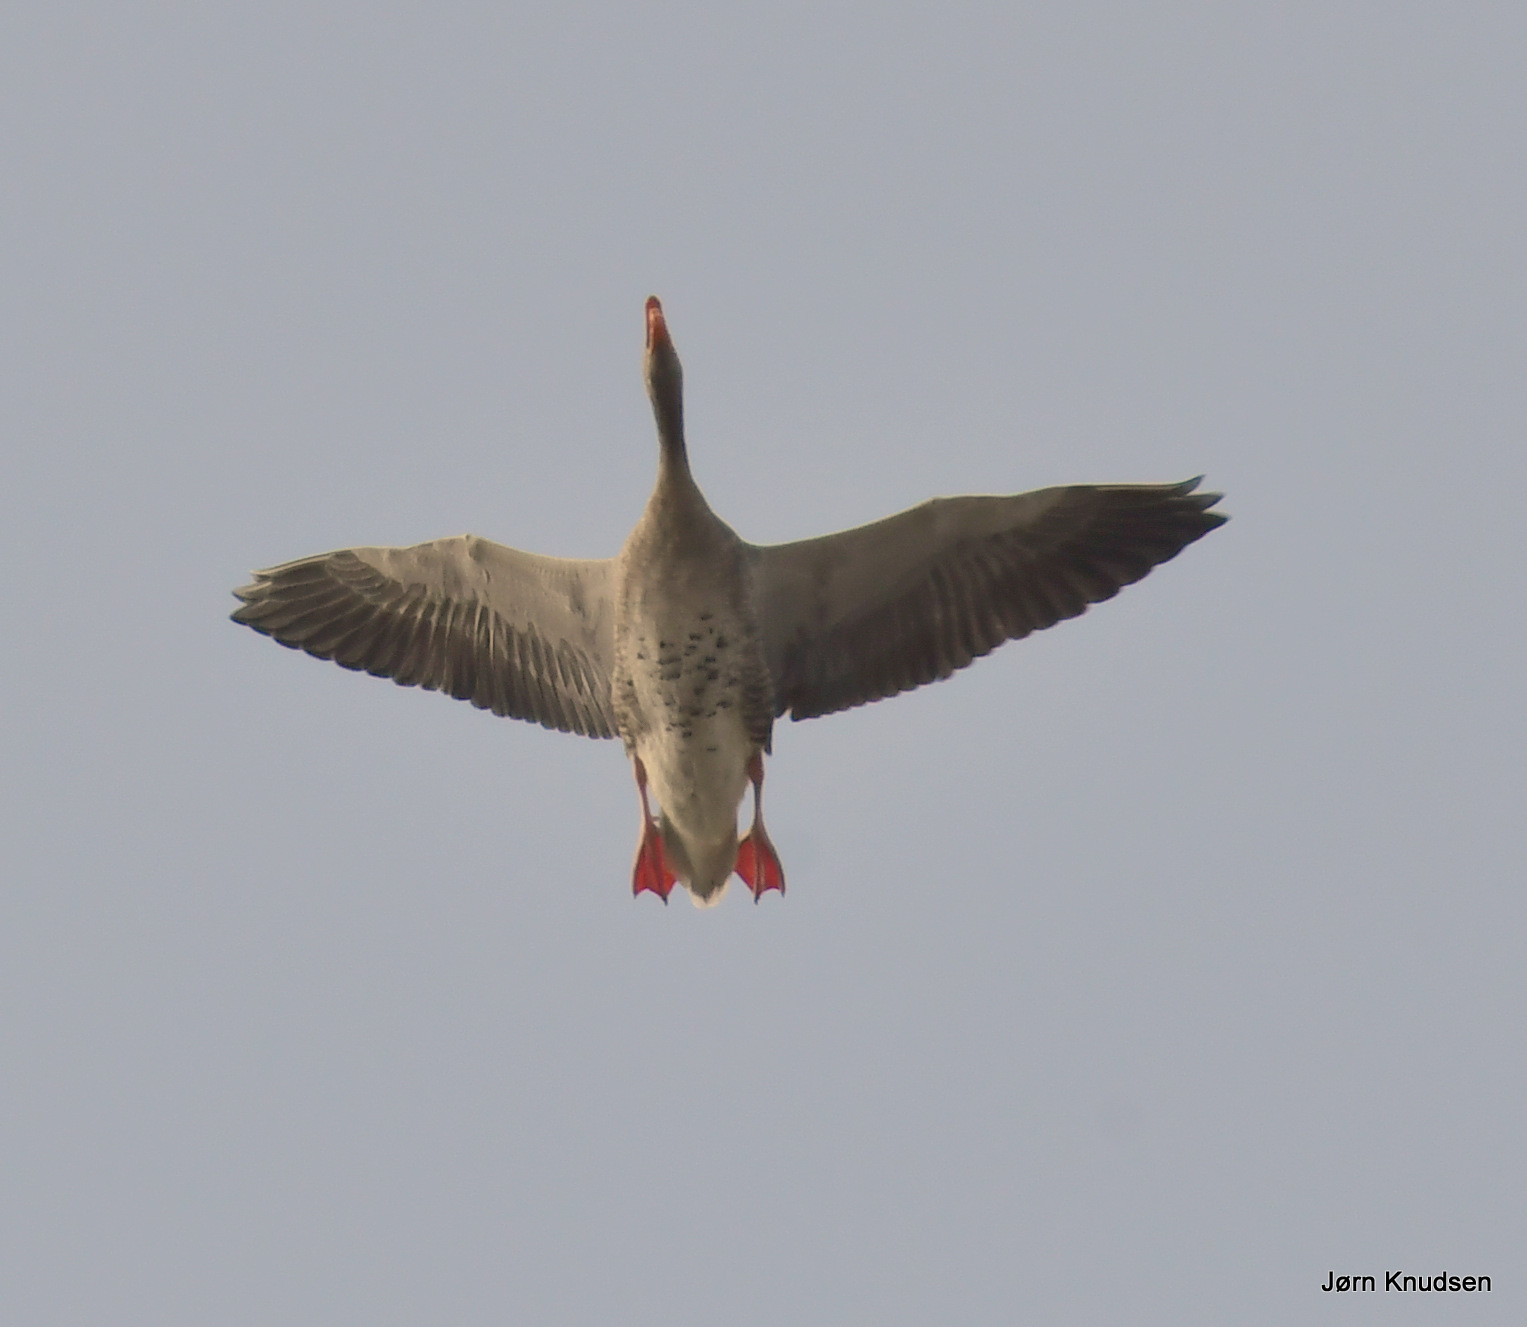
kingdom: Animalia
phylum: Chordata
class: Aves
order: Anseriformes
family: Anatidae
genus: Anser
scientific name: Anser anser
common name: Grågås
